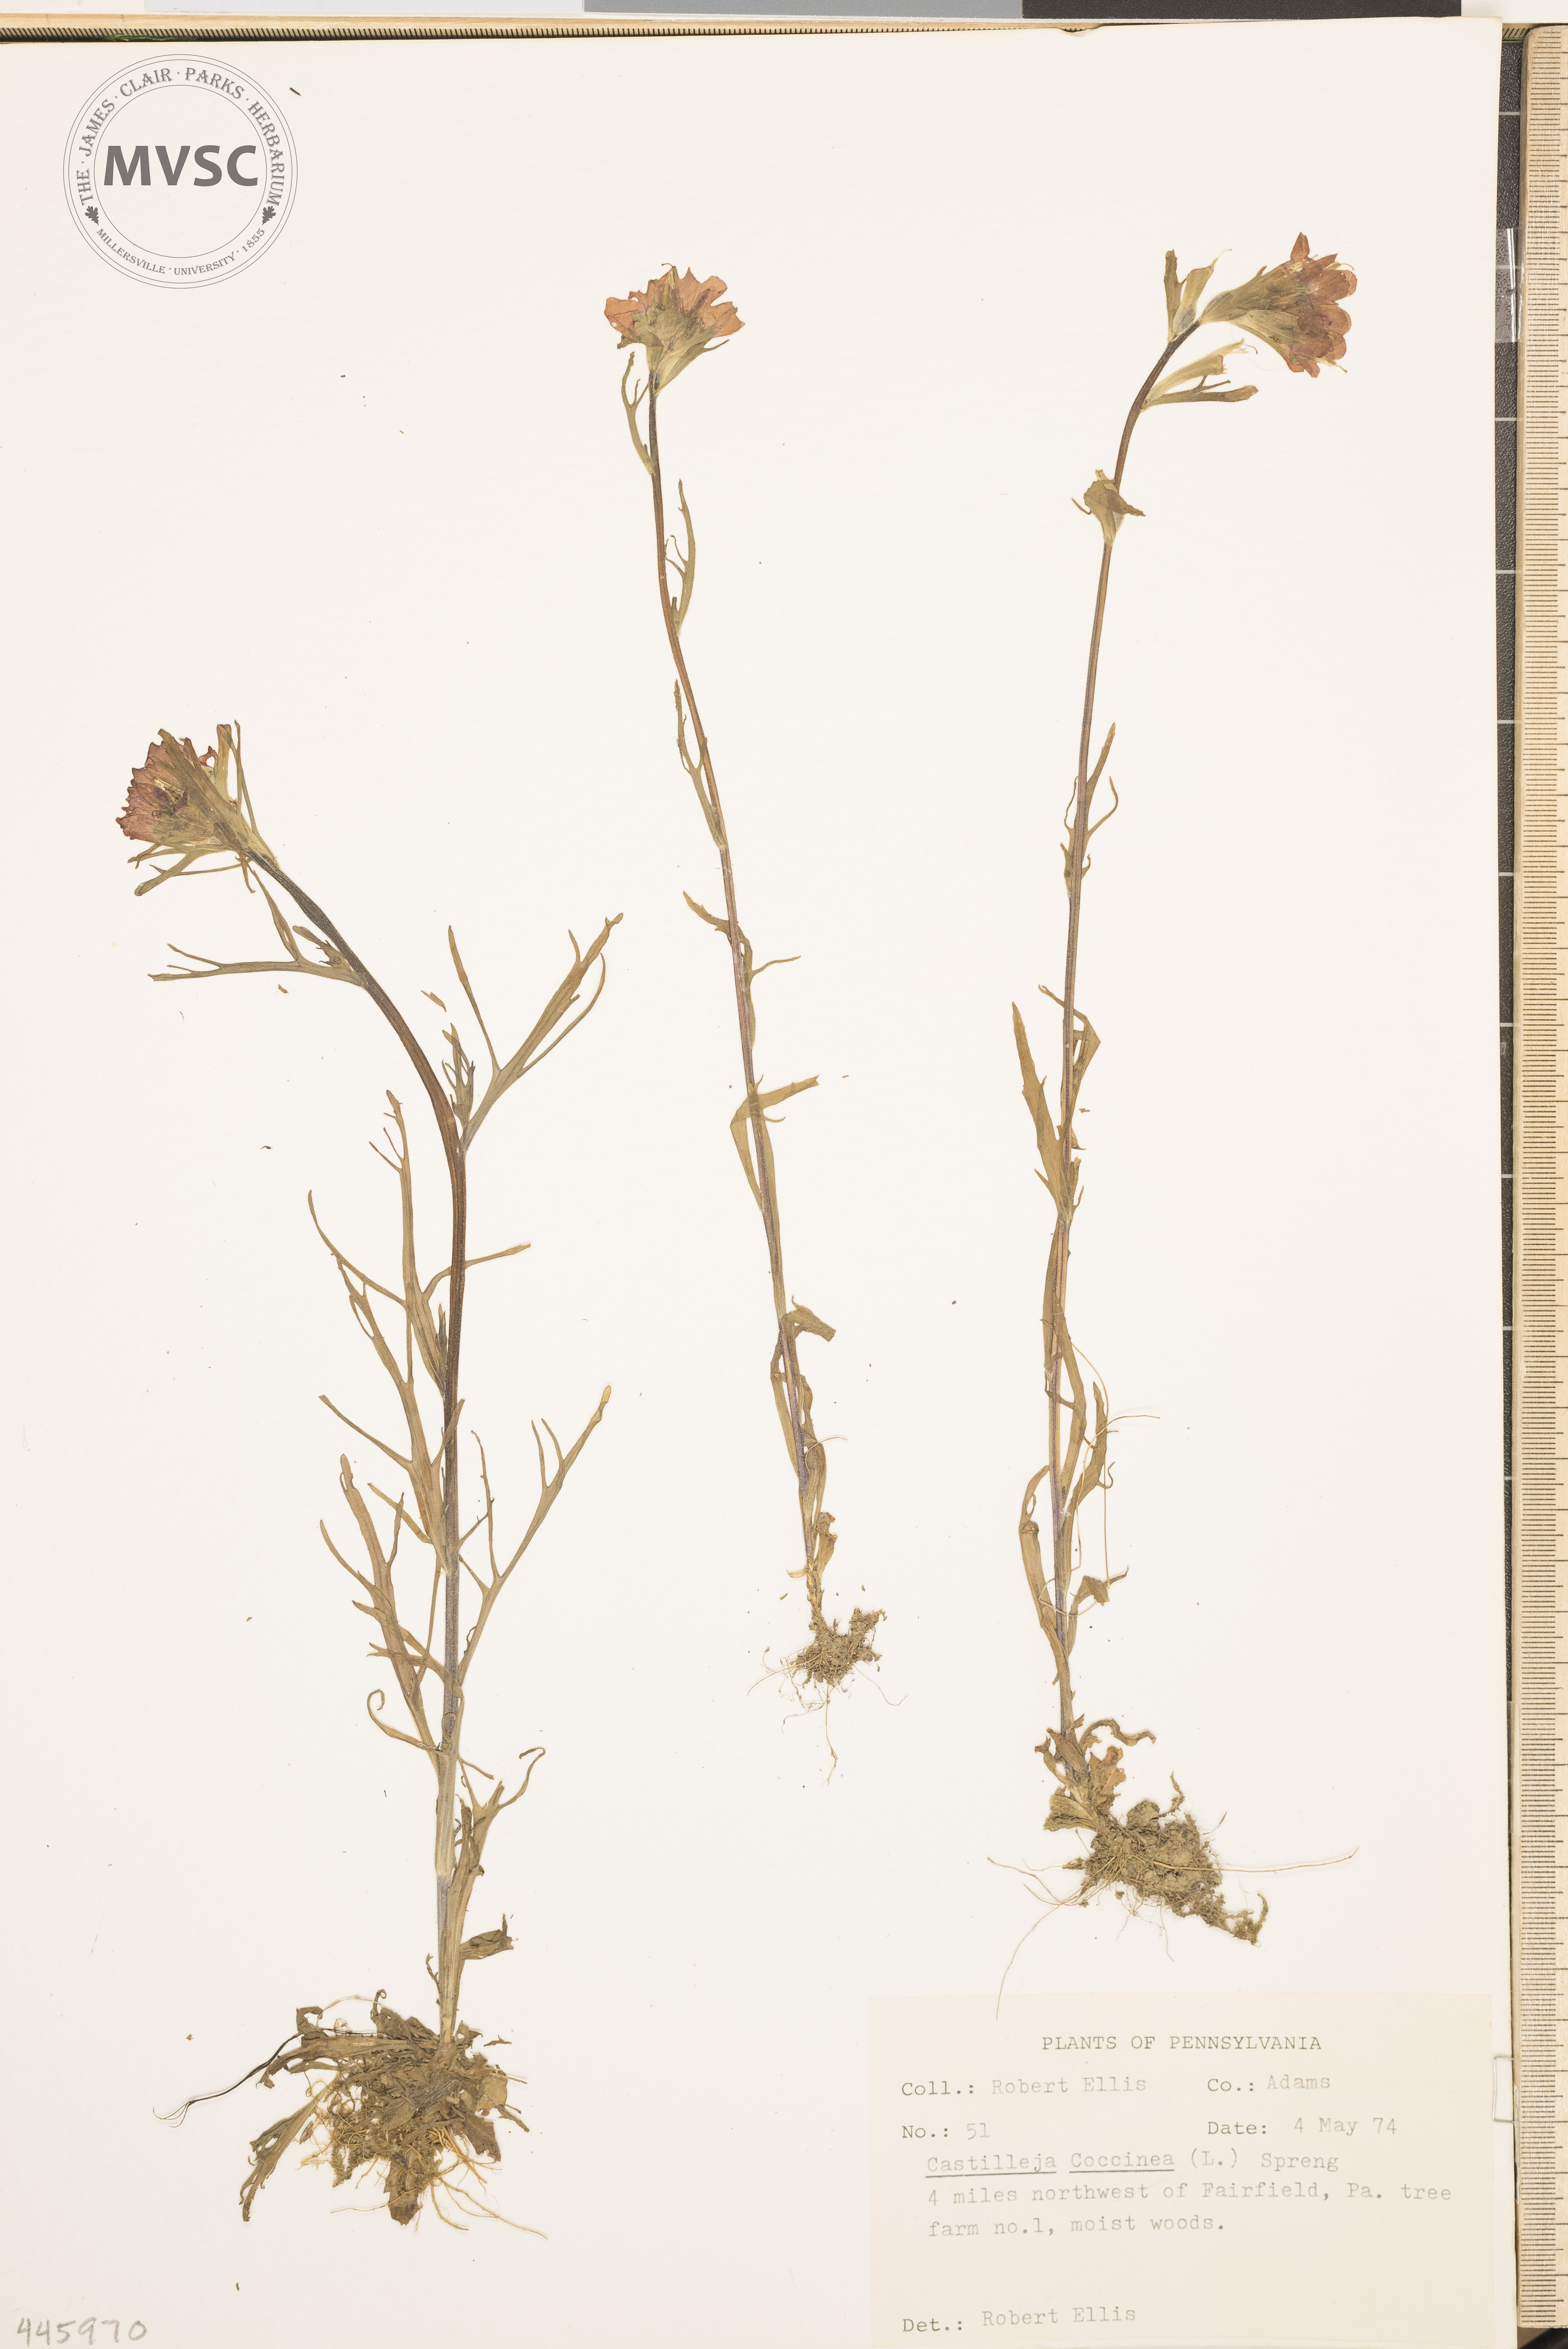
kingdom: Plantae
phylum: Tracheophyta
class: Magnoliopsida
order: Lamiales
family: Orobanchaceae
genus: Castilleja
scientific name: Castilleja coccinea
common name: Scarlet paintbrush
